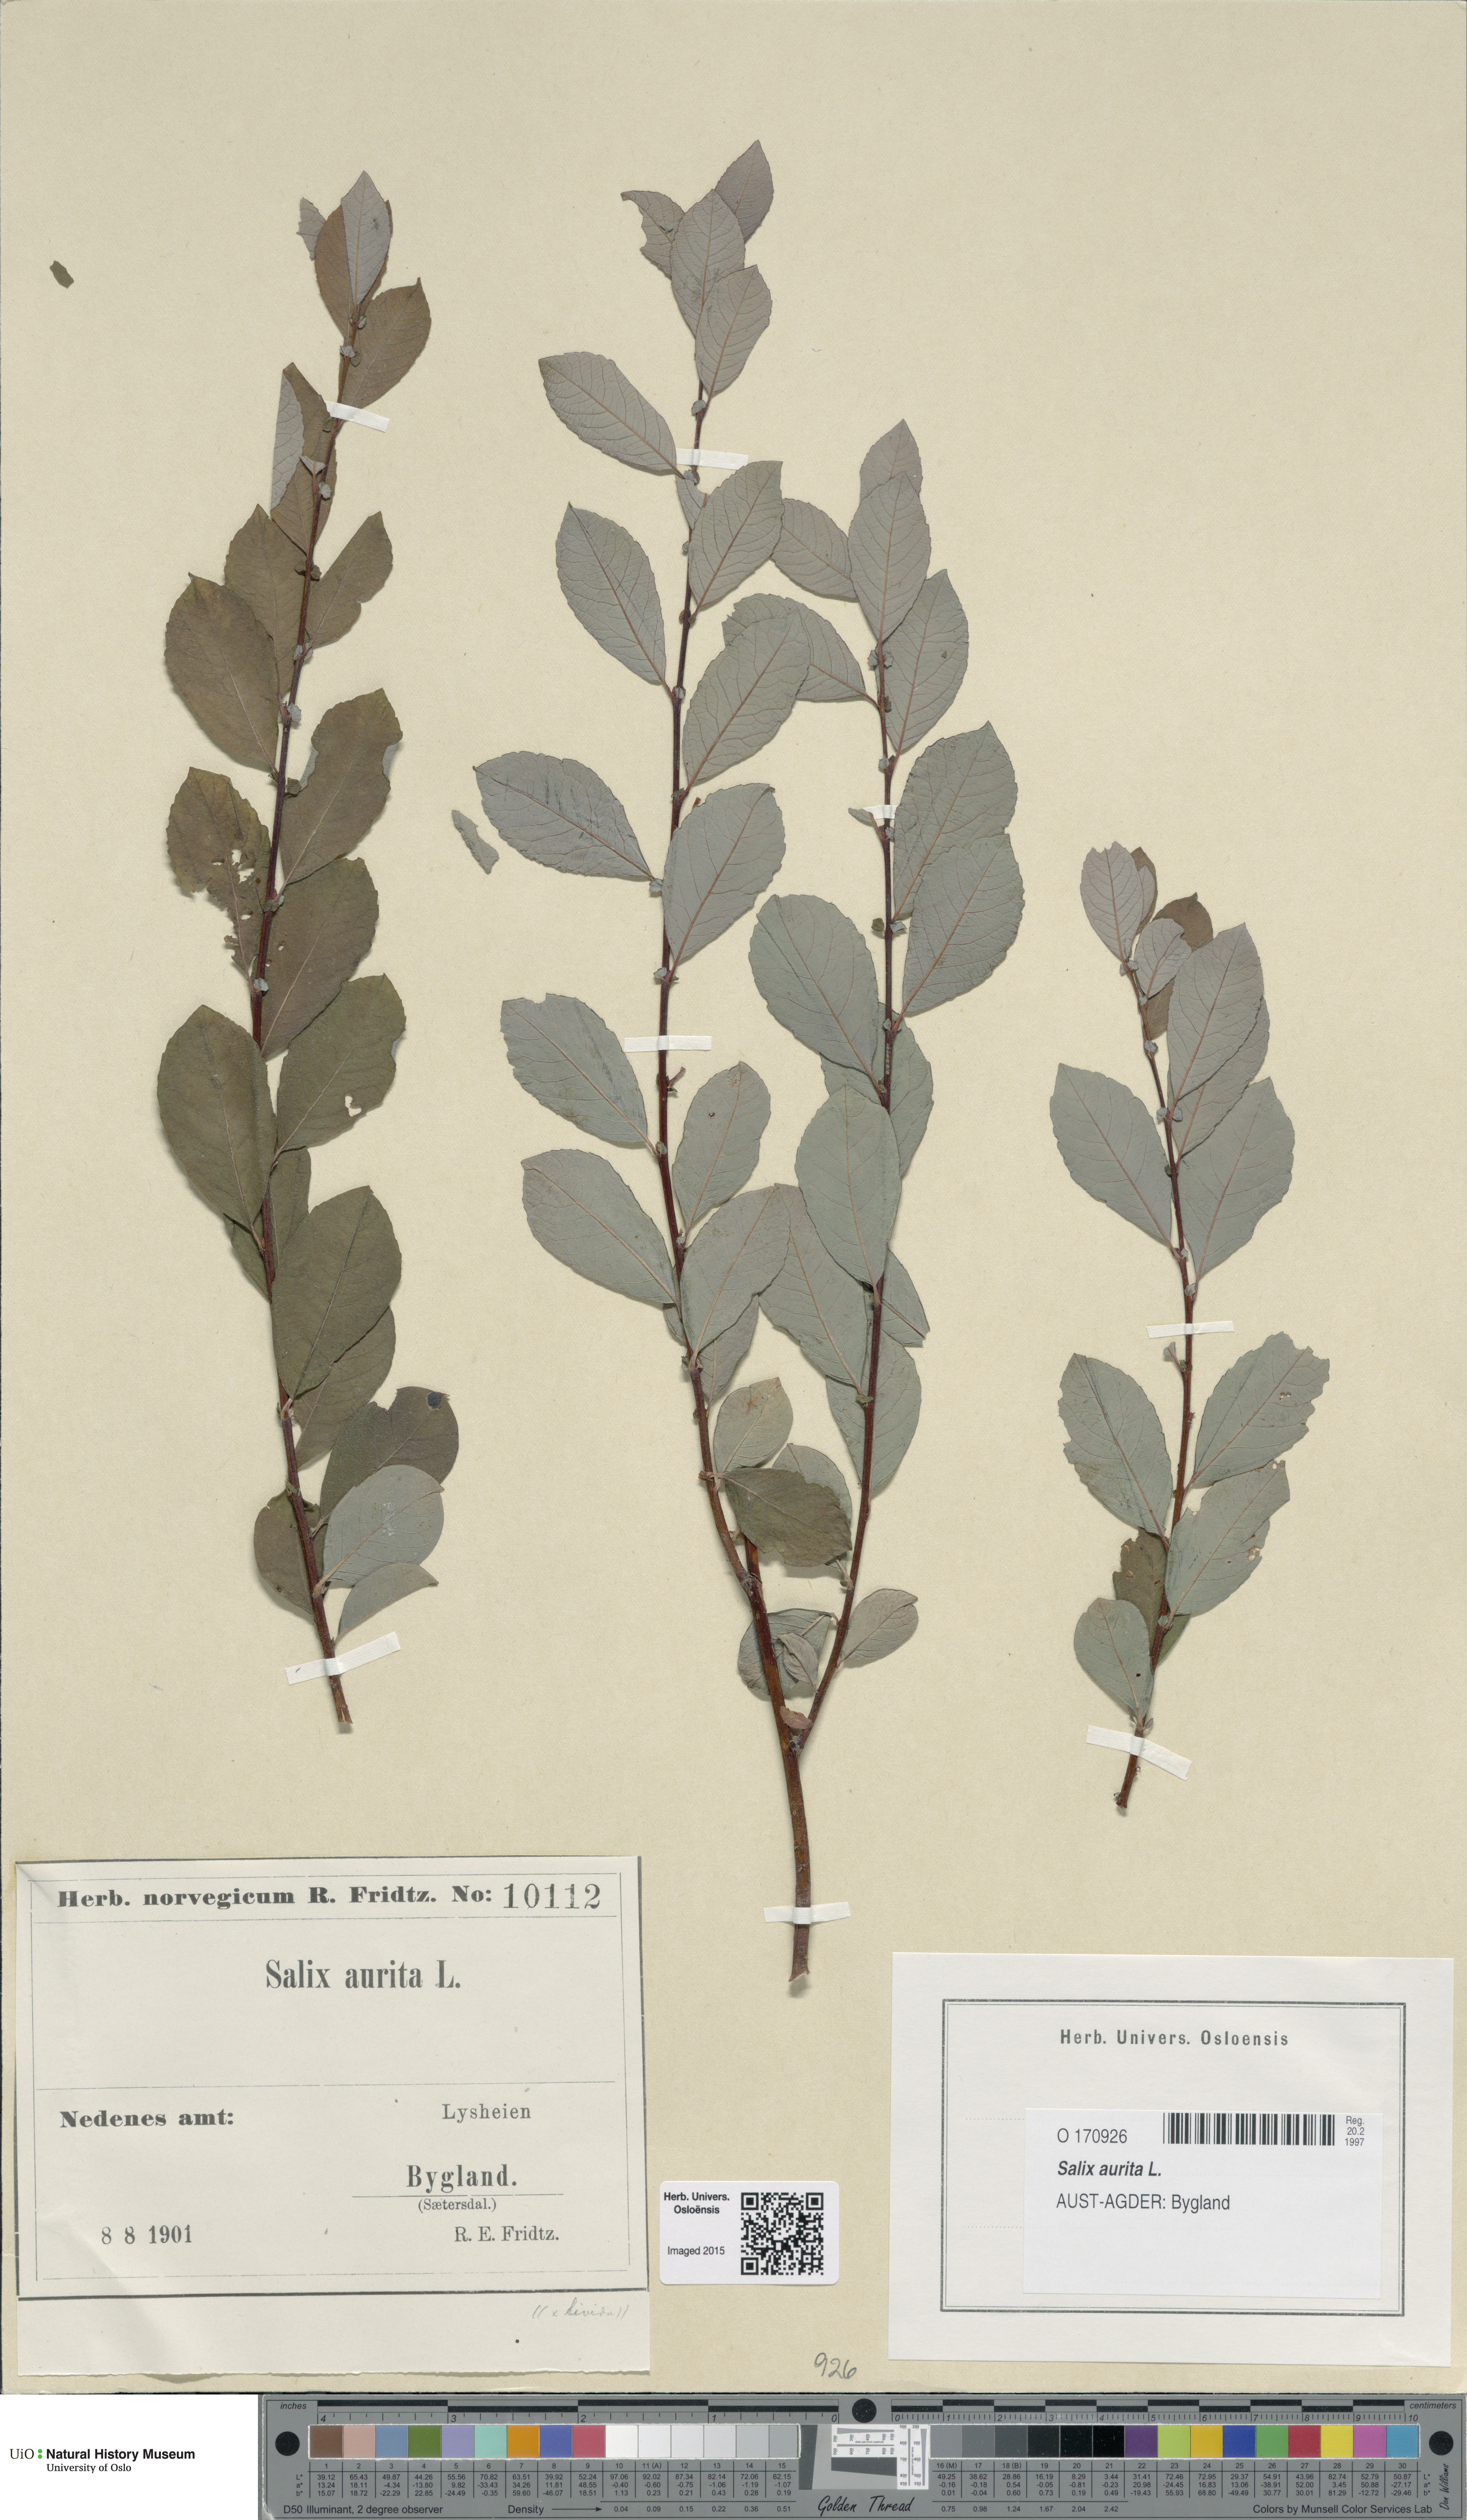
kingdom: Plantae
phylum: Tracheophyta
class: Magnoliopsida
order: Malpighiales
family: Salicaceae
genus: Salix
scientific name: Salix aurita
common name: Eared willow
